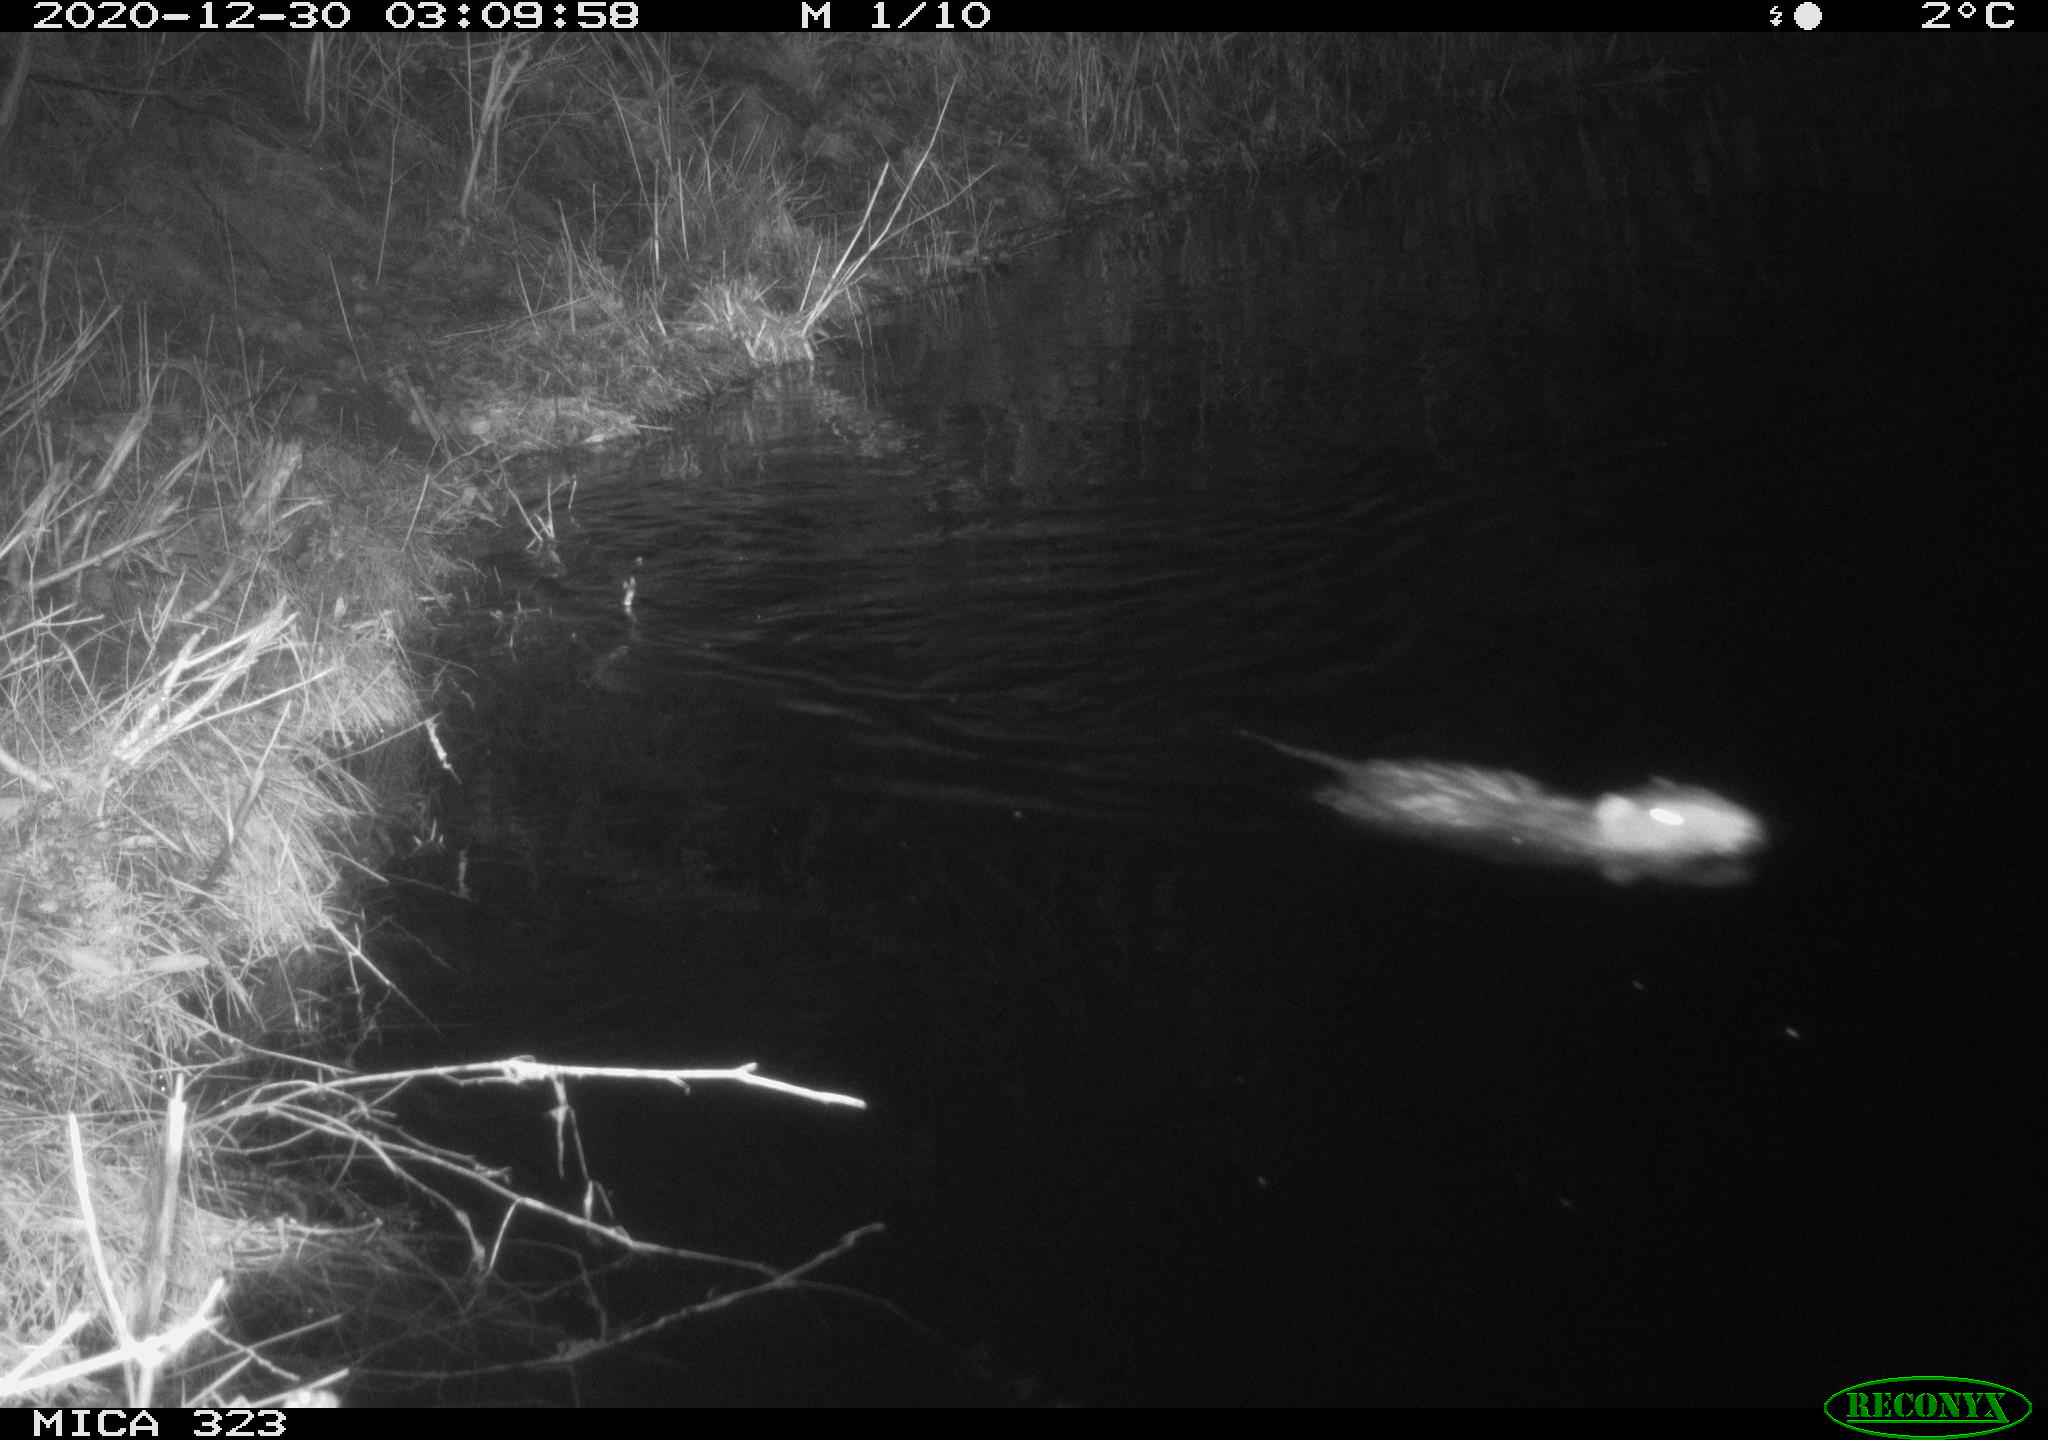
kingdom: Animalia
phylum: Chordata
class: Mammalia
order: Rodentia
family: Myocastoridae
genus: Myocastor
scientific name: Myocastor coypus
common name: Coypu
